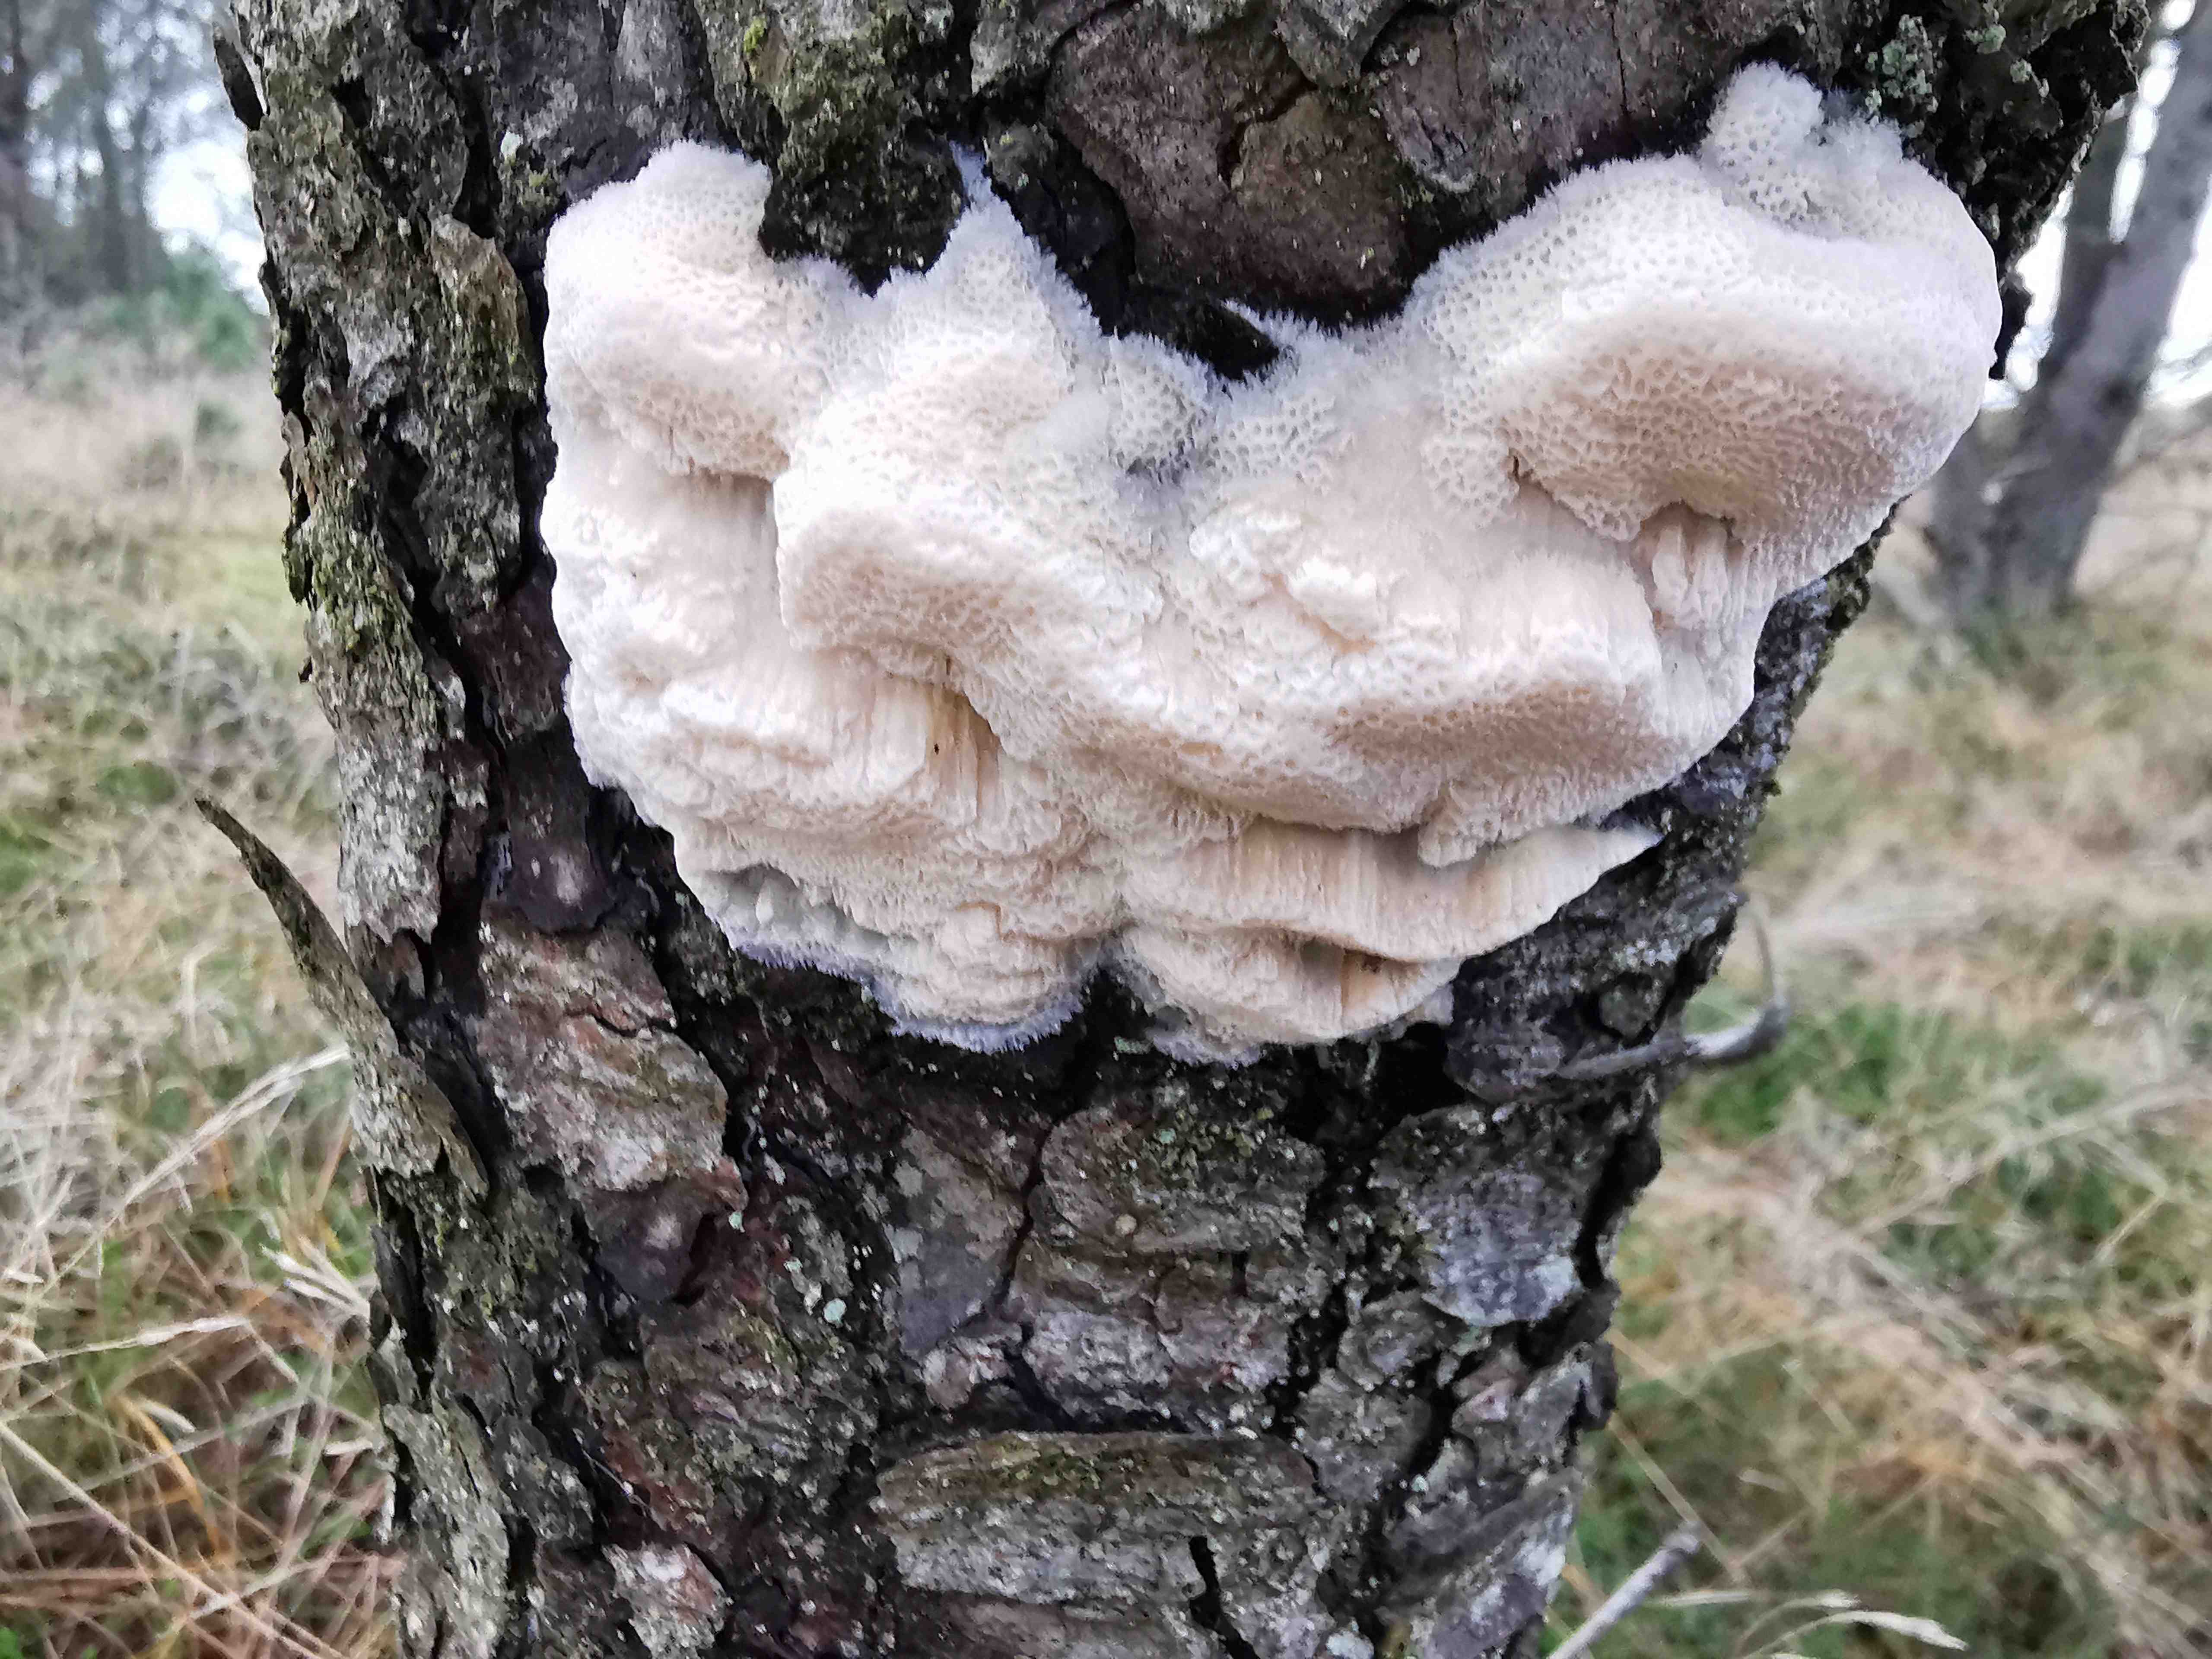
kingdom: Fungi
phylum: Basidiomycota
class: Agaricomycetes
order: Polyporales
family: Polyporaceae
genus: Diplomitoporus
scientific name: Diplomitoporus flavescens
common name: fyrre-elastikporesvamp
